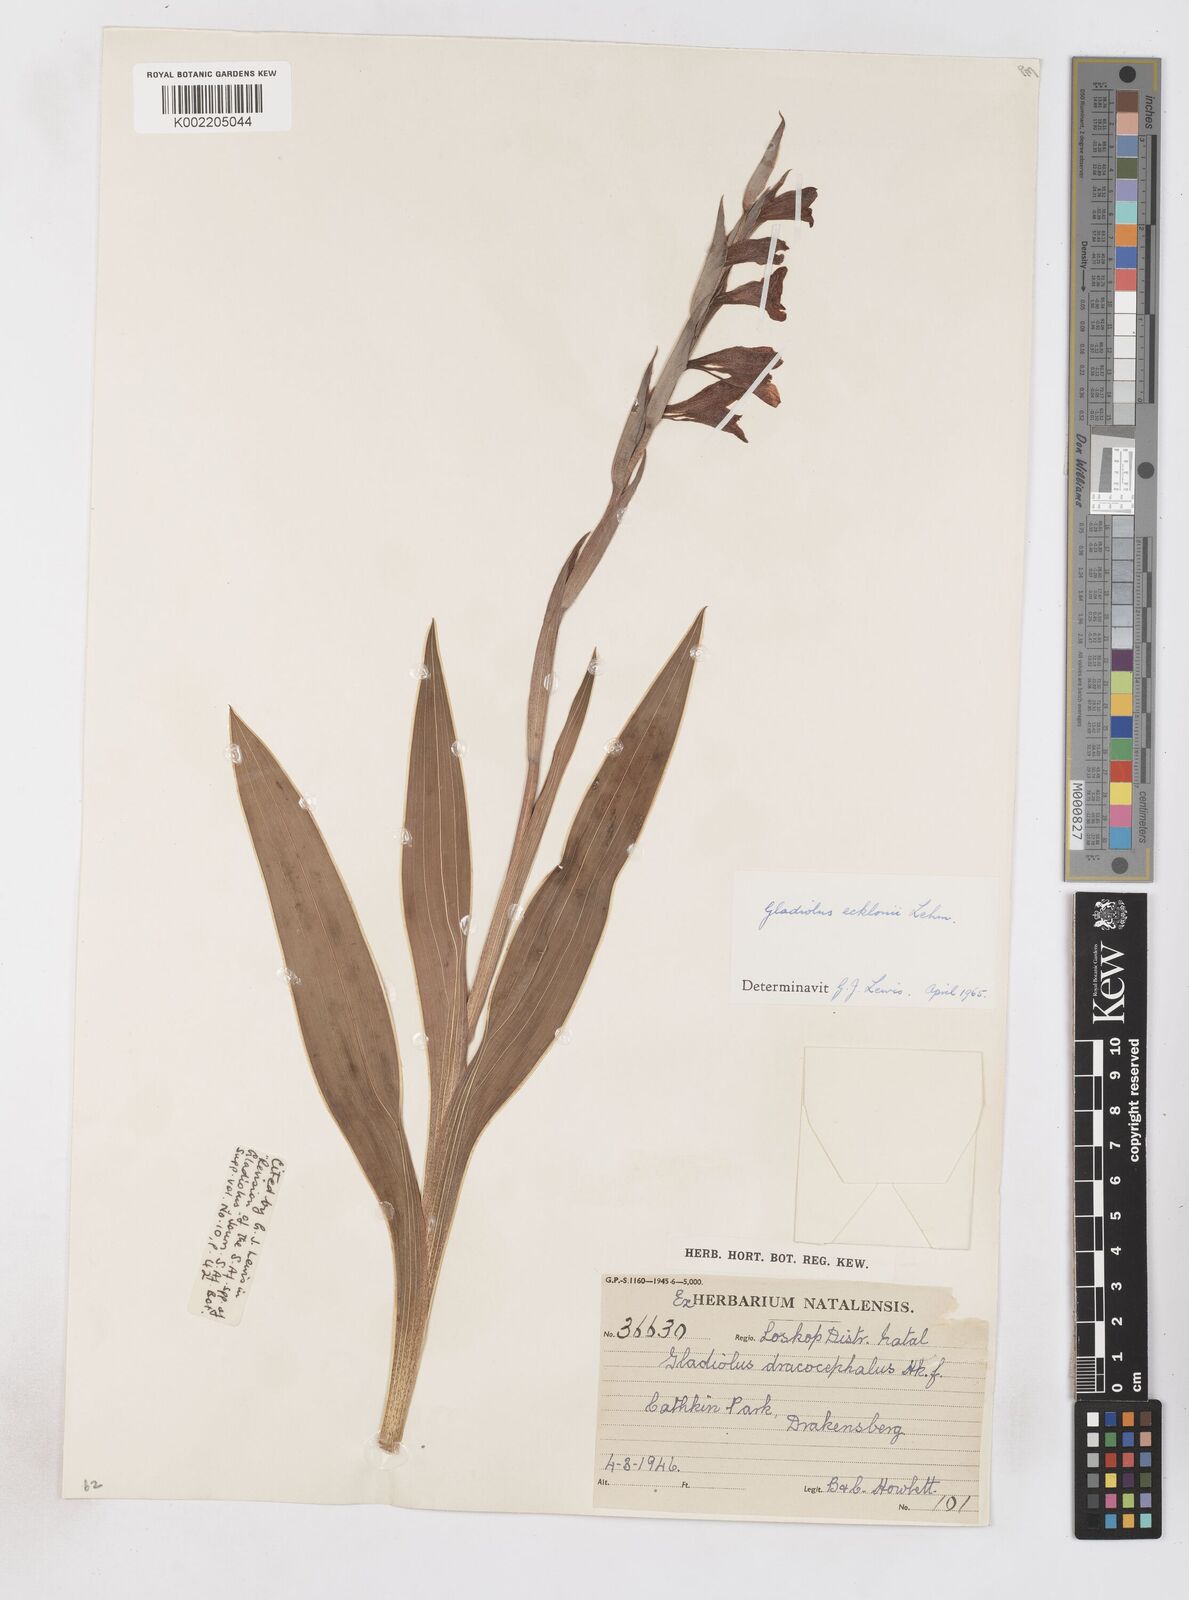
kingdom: Plantae
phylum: Tracheophyta
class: Liliopsida
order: Asparagales
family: Iridaceae
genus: Gladiolus
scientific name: Gladiolus ecklonii
